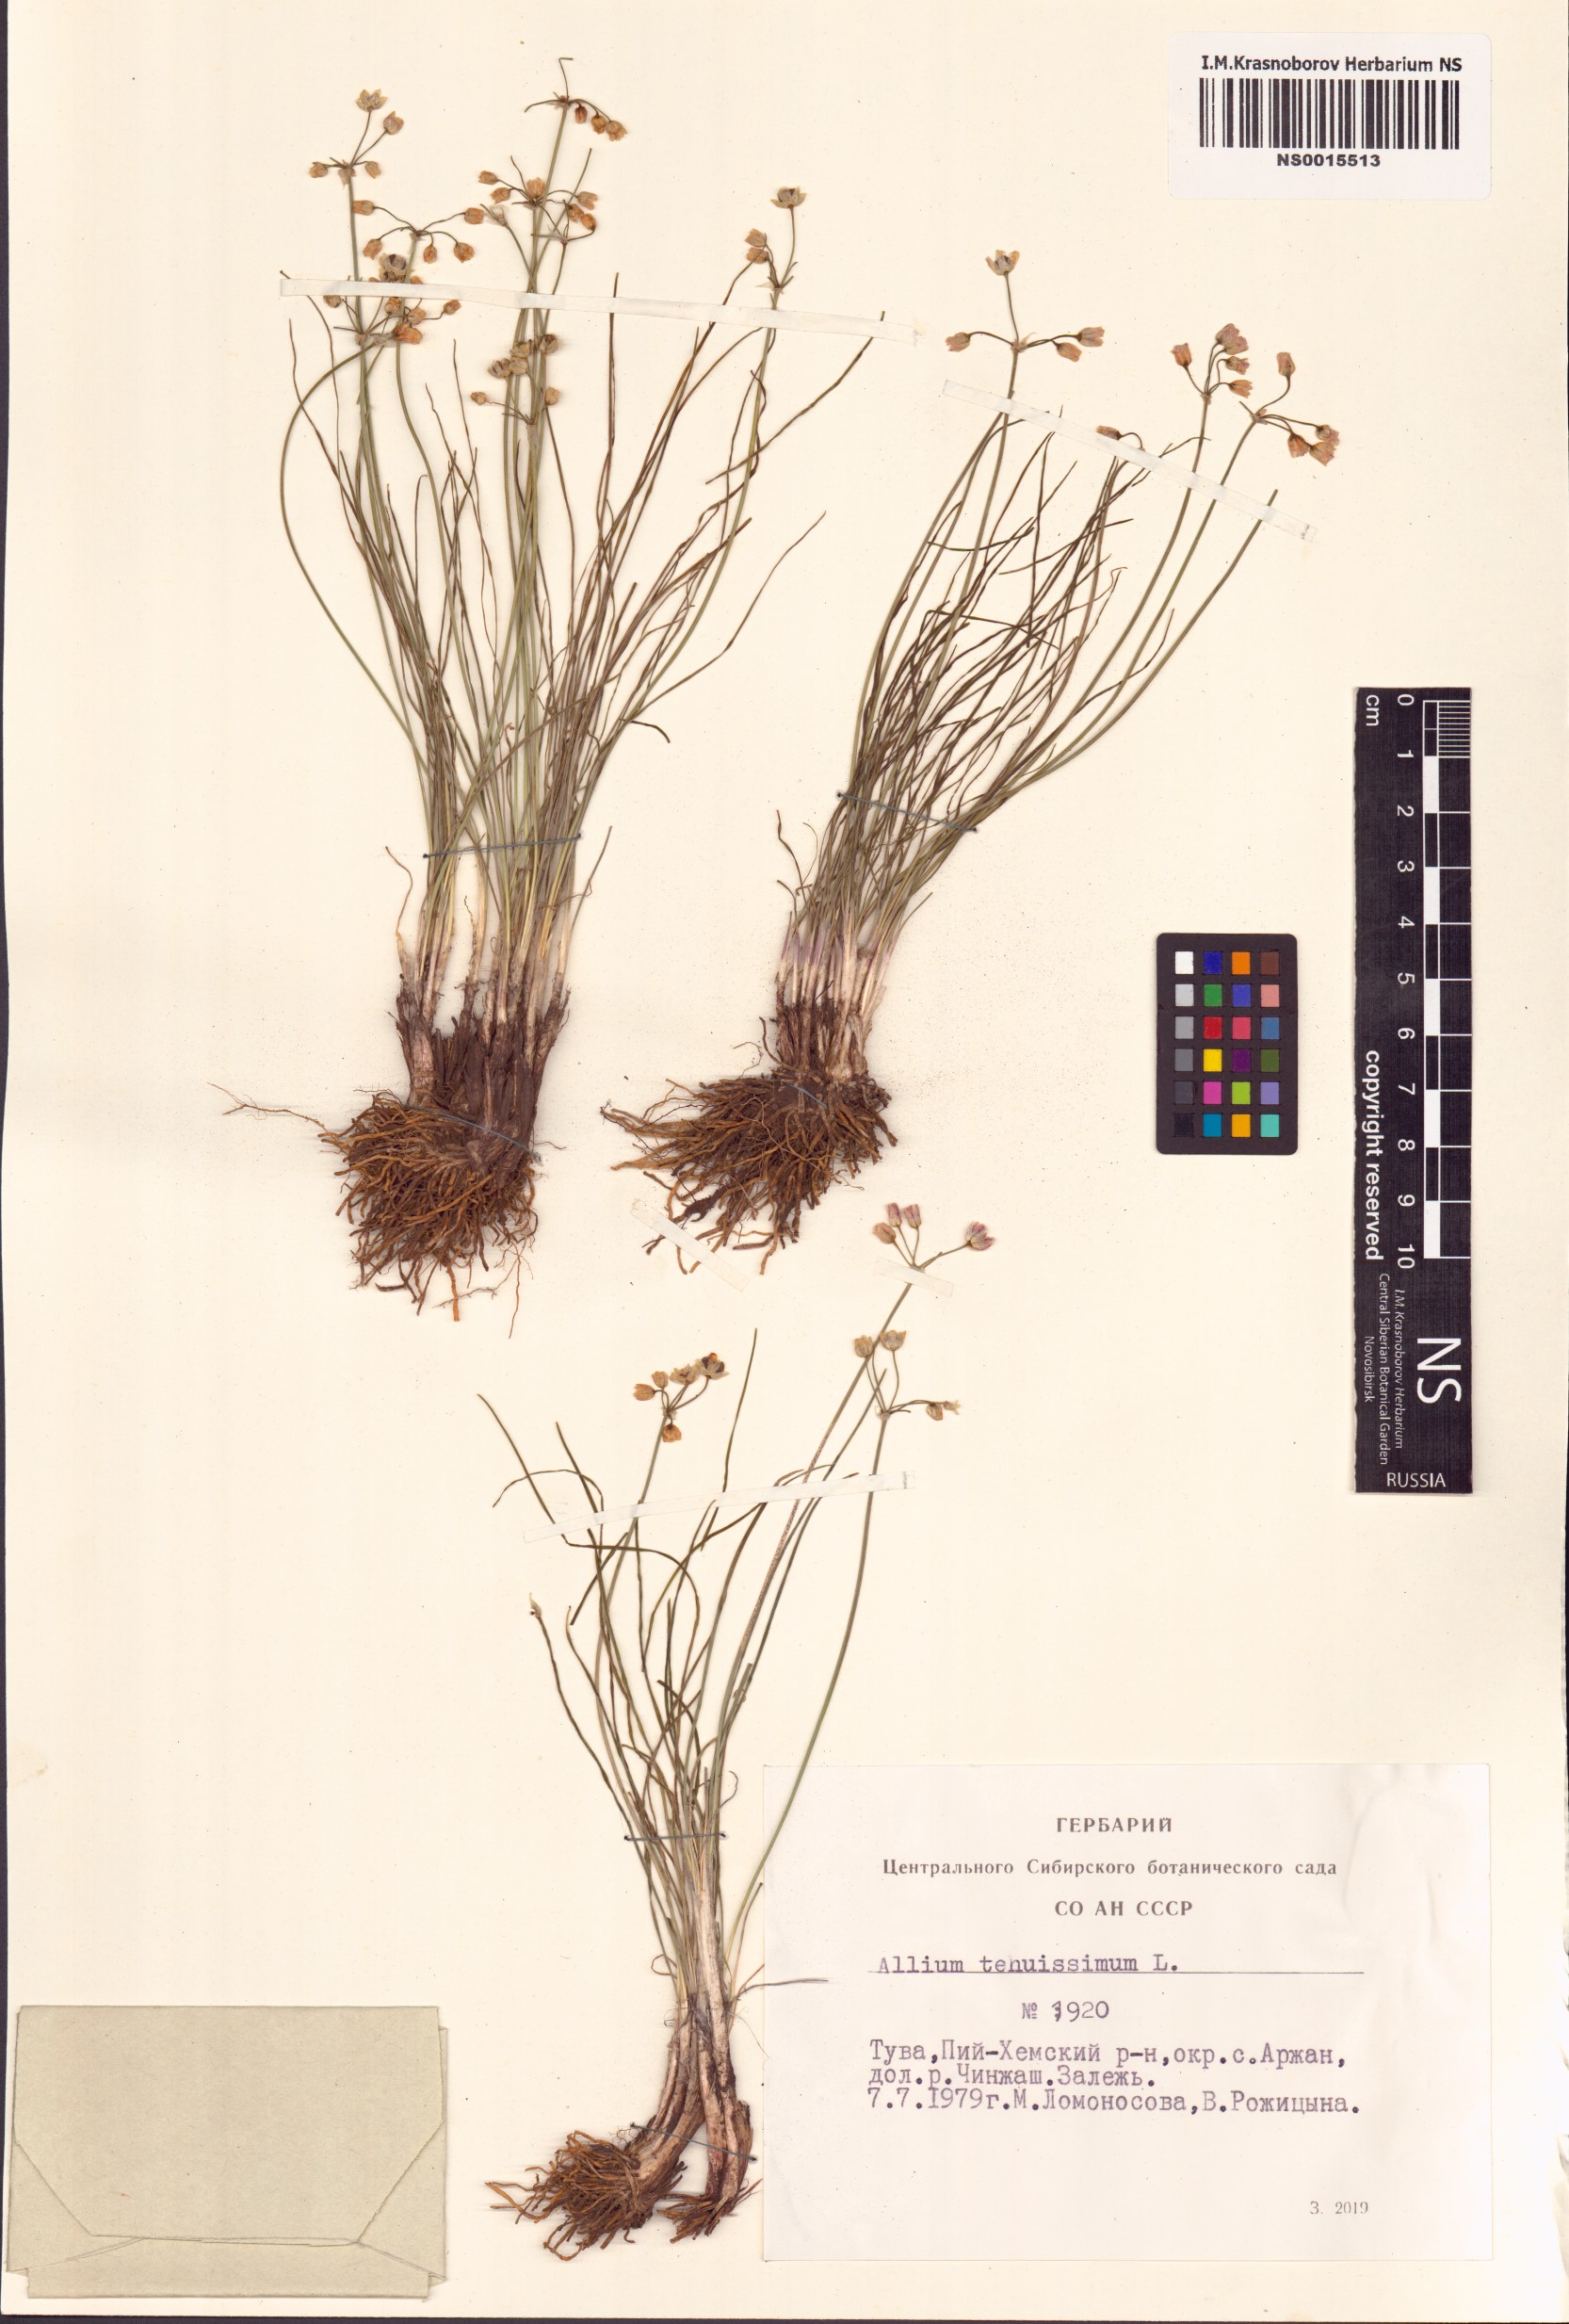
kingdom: Plantae
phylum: Tracheophyta
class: Liliopsida
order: Asparagales
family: Amaryllidaceae
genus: Allium
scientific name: Allium tenuissimum
